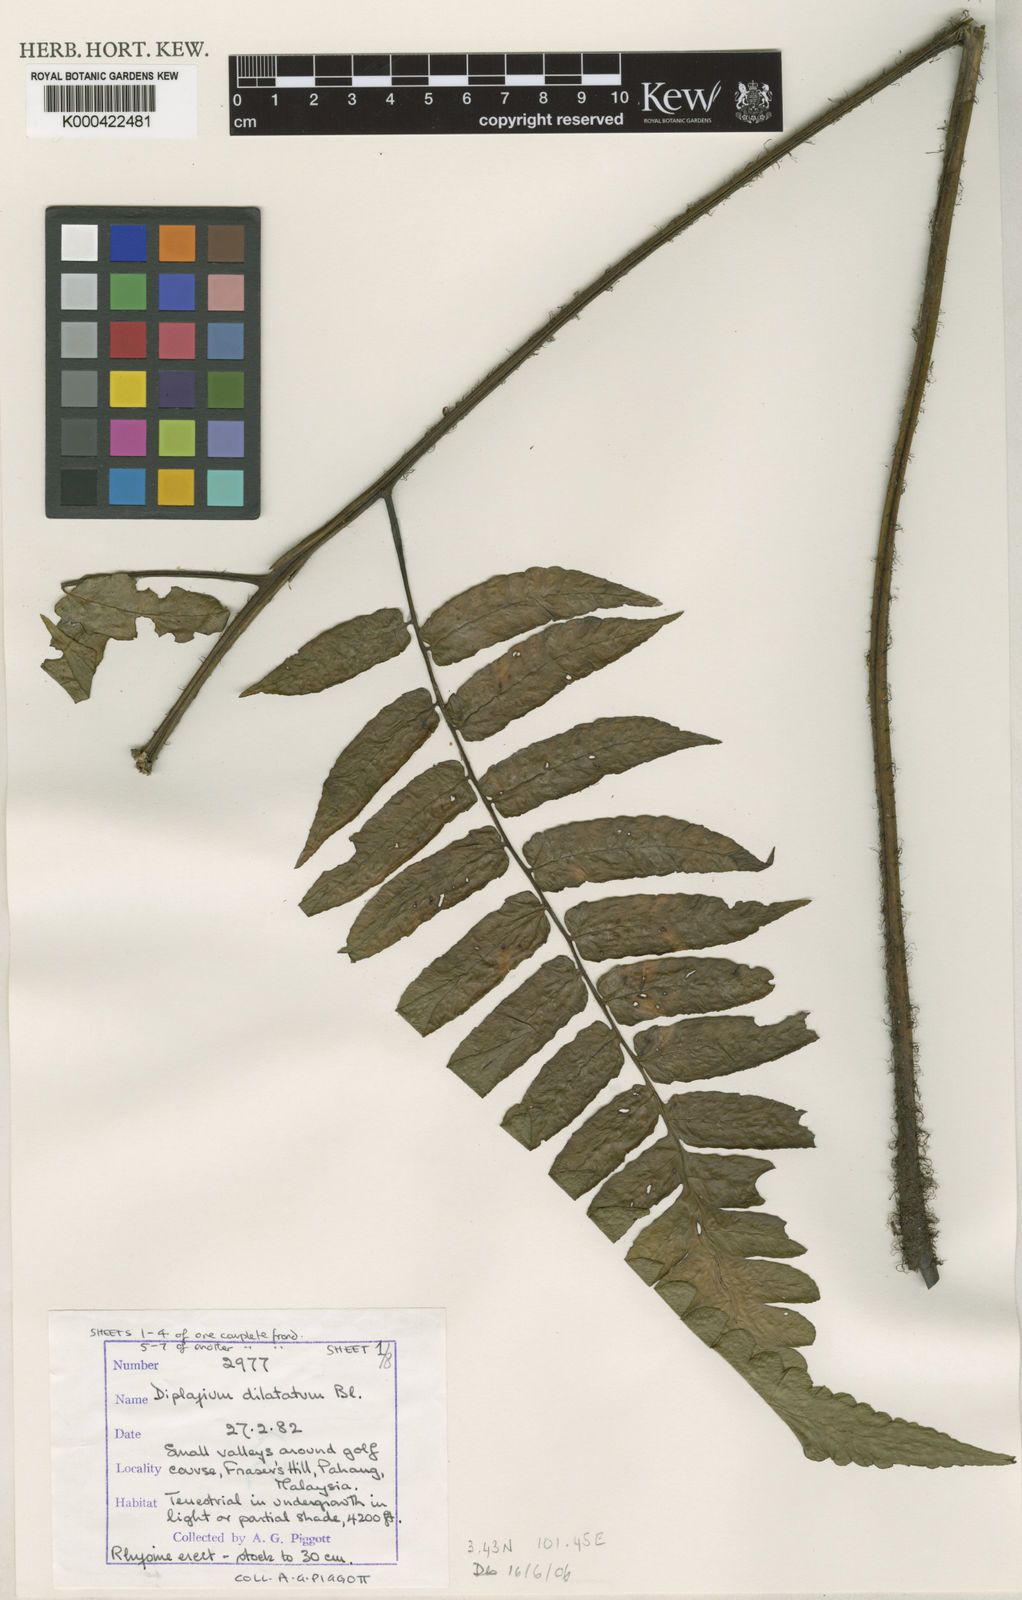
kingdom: Plantae
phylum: Tracheophyta
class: Polypodiopsida
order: Polypodiales
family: Athyriaceae
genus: Diplazium
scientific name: Diplazium dilatatum
